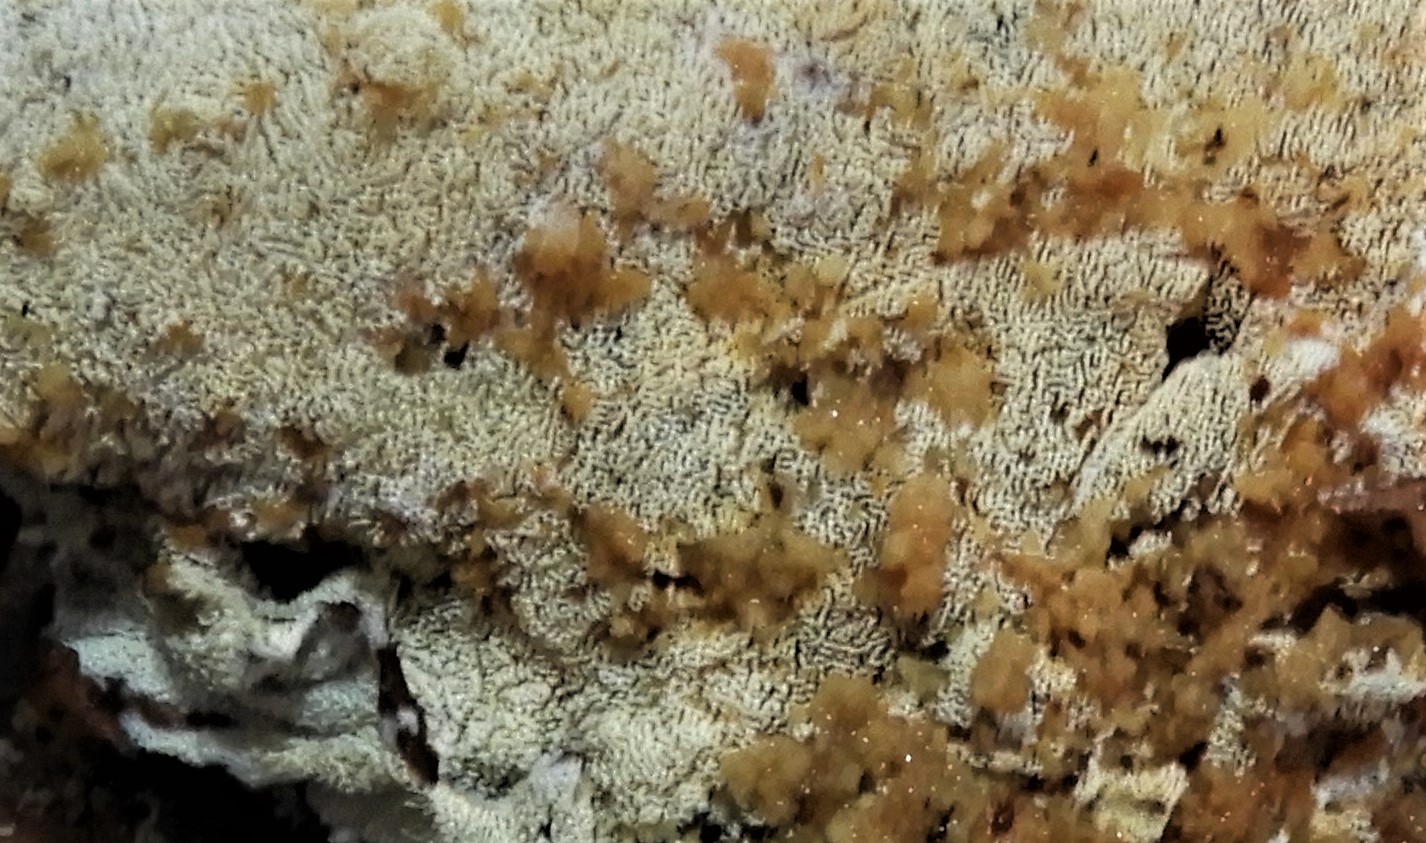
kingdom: Fungi
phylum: Basidiomycota
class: Agaricomycetes
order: Hymenochaetales
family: Schizoporaceae
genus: Xylodon
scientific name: Xylodon subtropicus
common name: labyrint-tandsvamp
